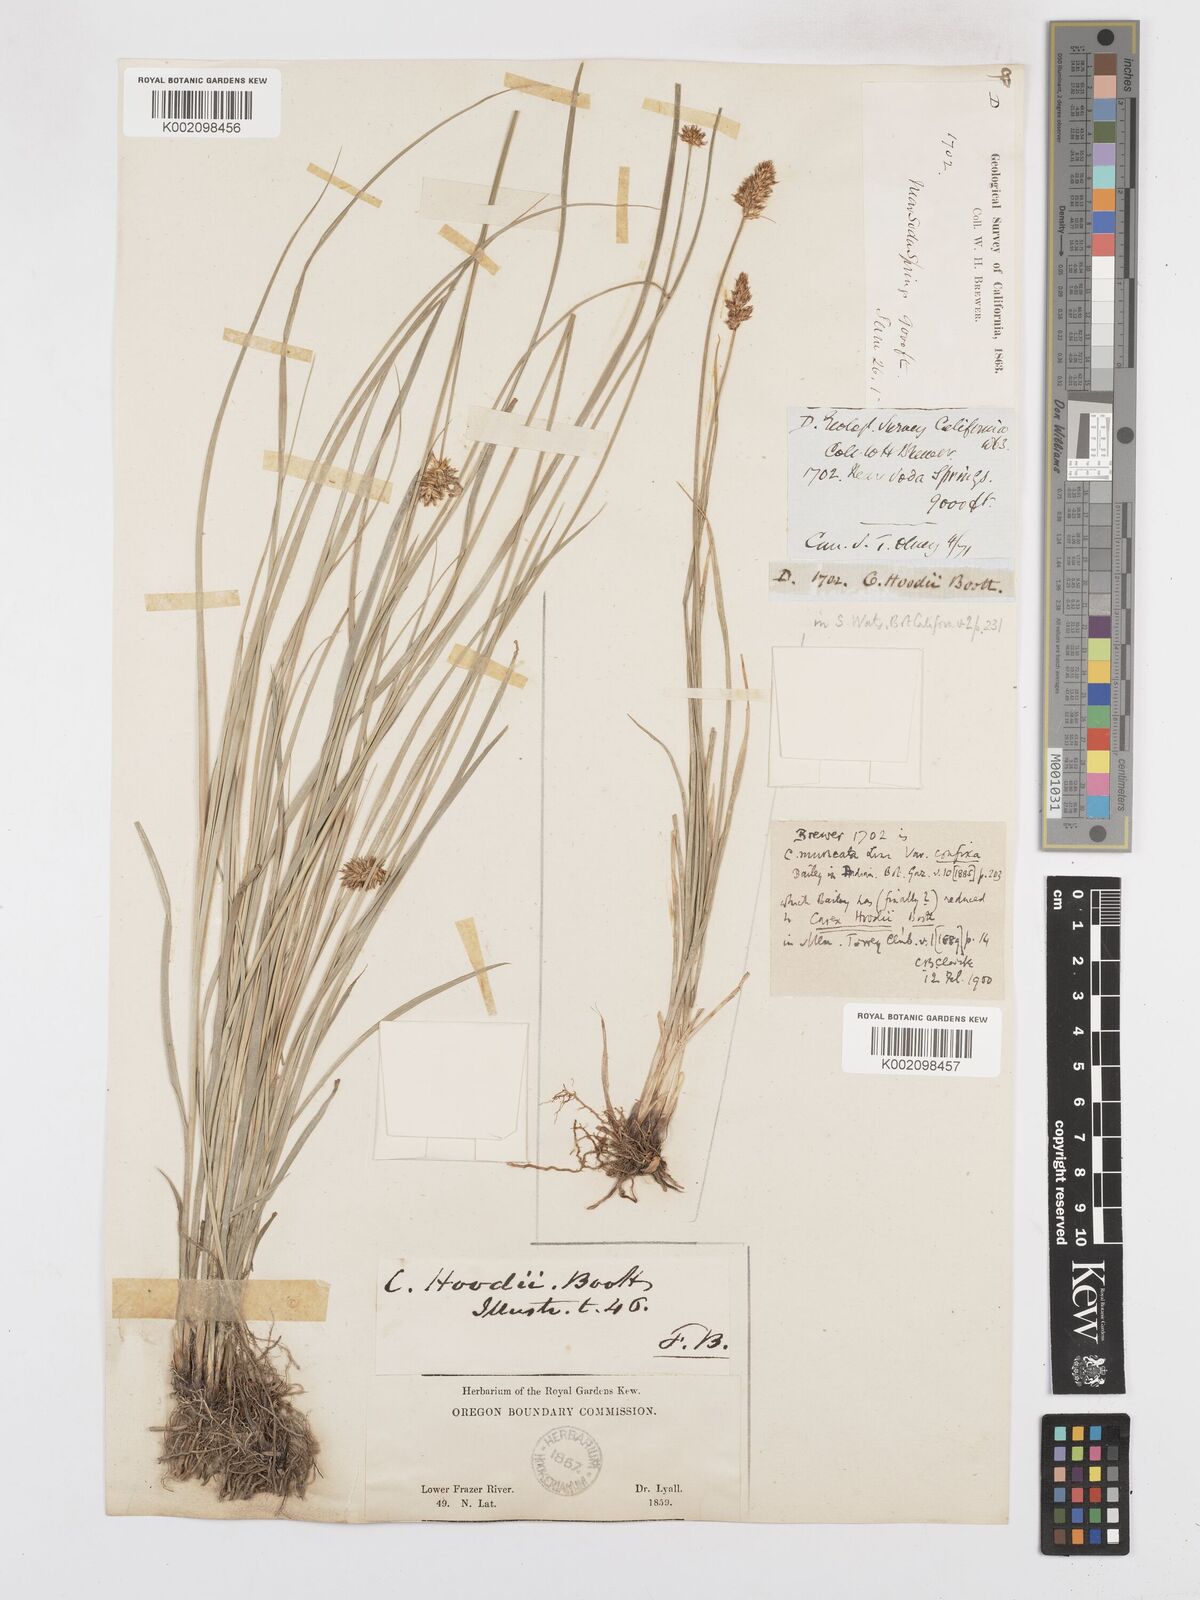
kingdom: Plantae
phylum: Tracheophyta
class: Liliopsida
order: Poales
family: Cyperaceae
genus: Carex
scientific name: Carex hoodii
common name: Hood's sedge
